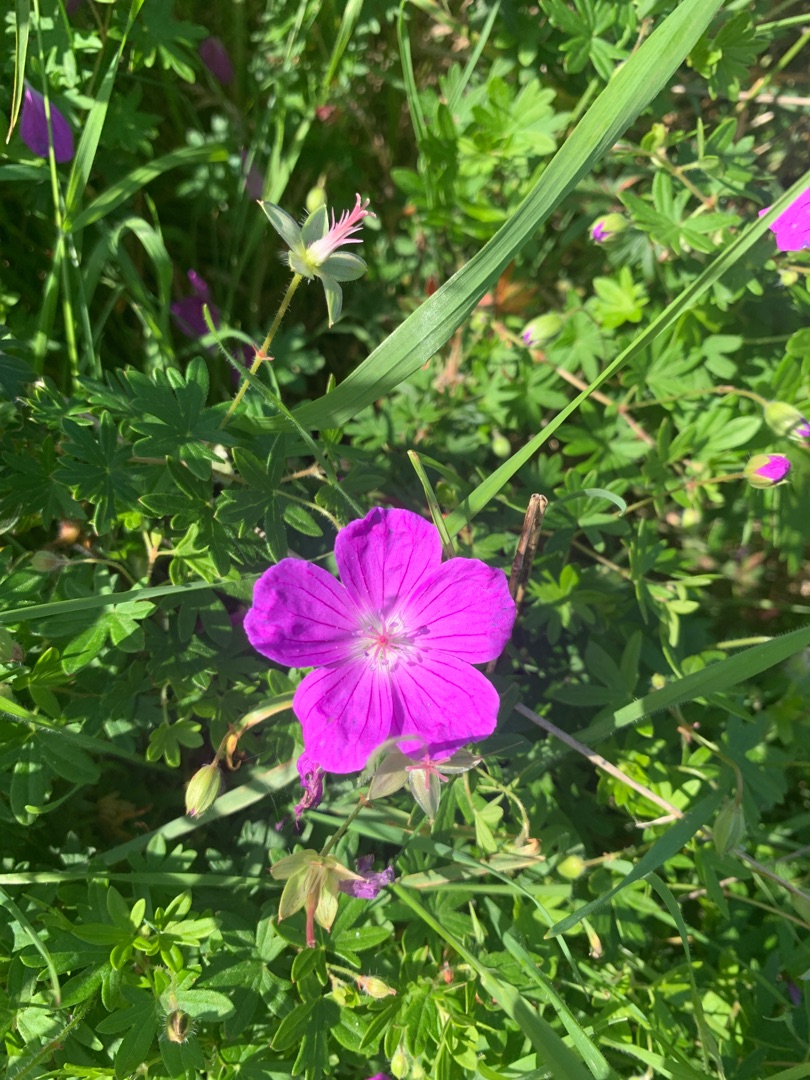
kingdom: Plantae
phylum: Tracheophyta
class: Magnoliopsida
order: Geraniales
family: Geraniaceae
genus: Geranium
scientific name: Geranium sanguineum
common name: Blodrød storkenæb
